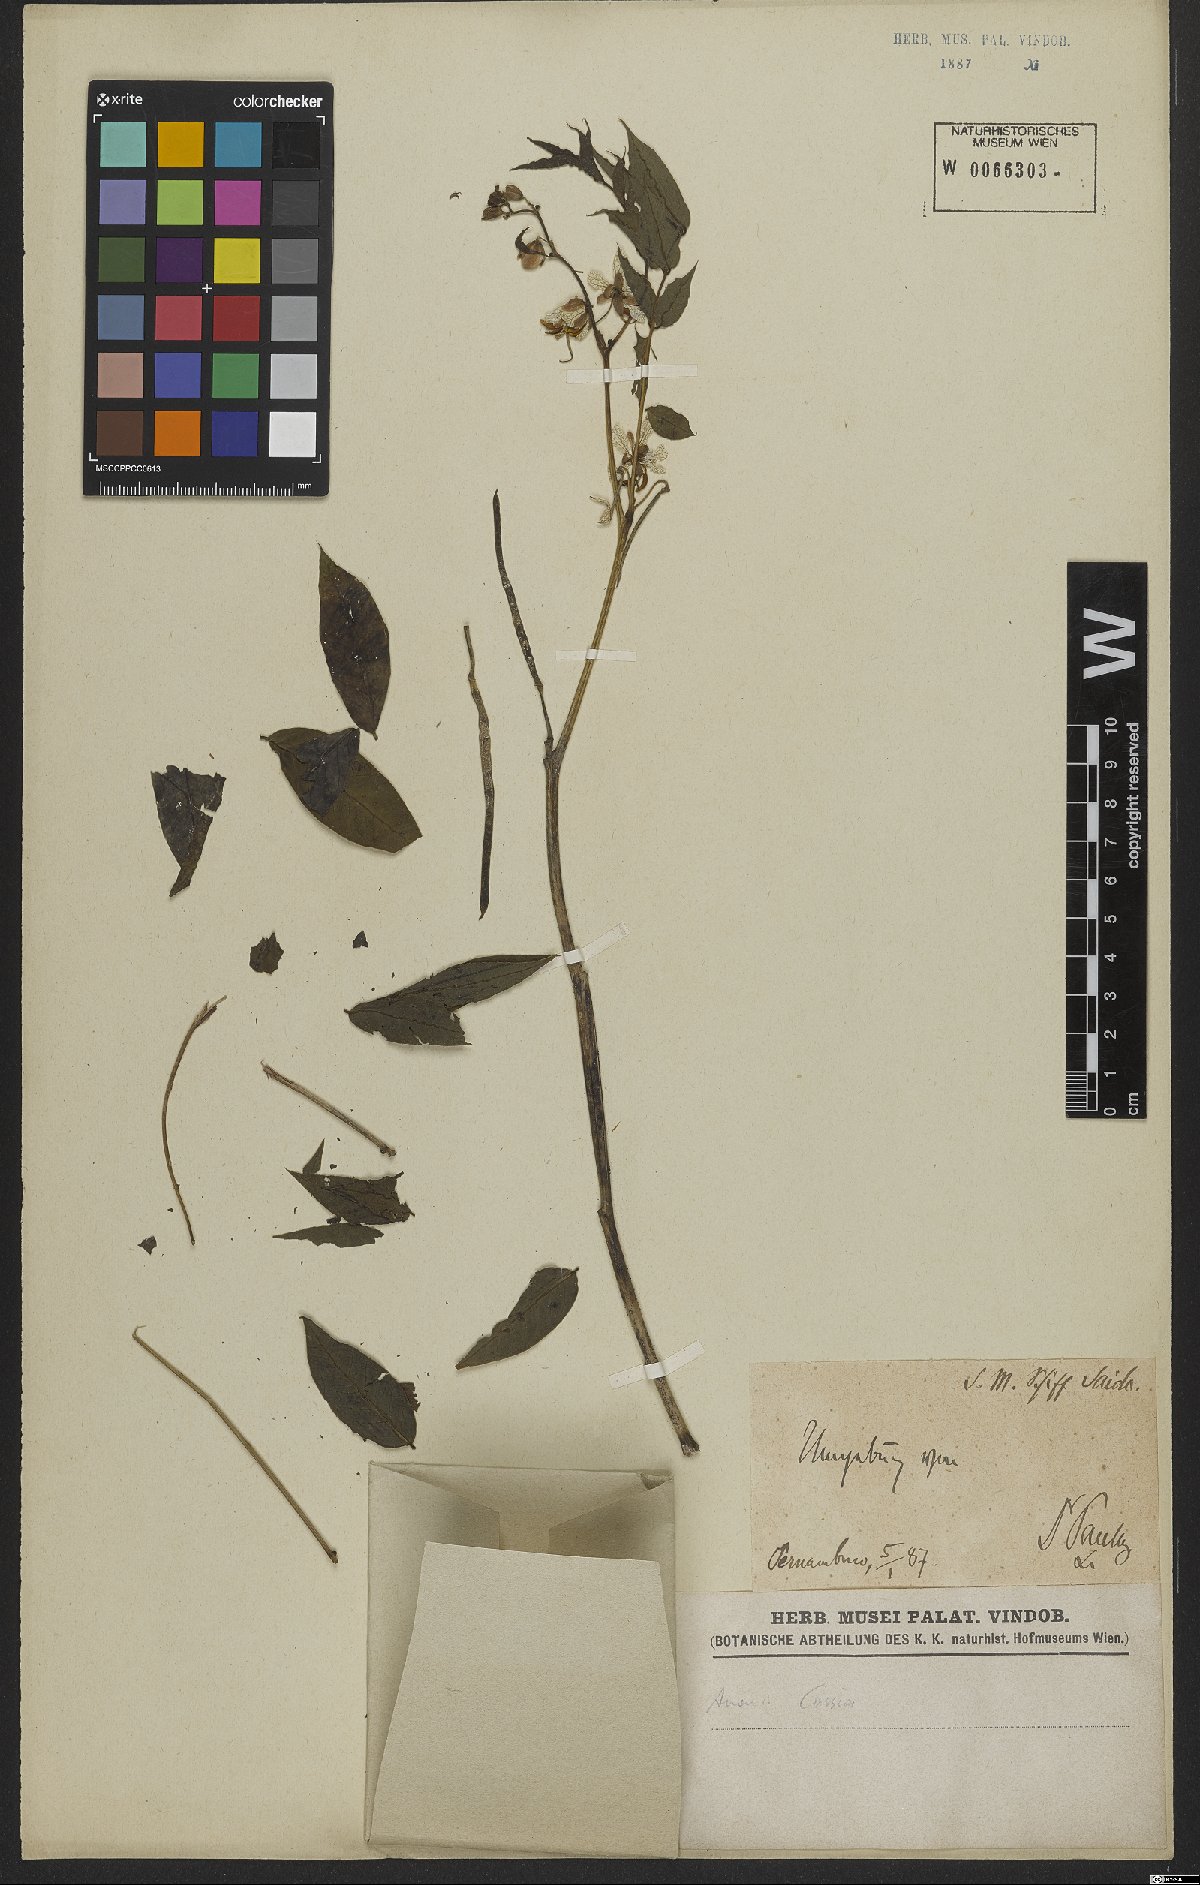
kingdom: Plantae
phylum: Tracheophyta
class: Magnoliopsida
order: Fabales
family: Fabaceae
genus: Cassia
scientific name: Cassia
